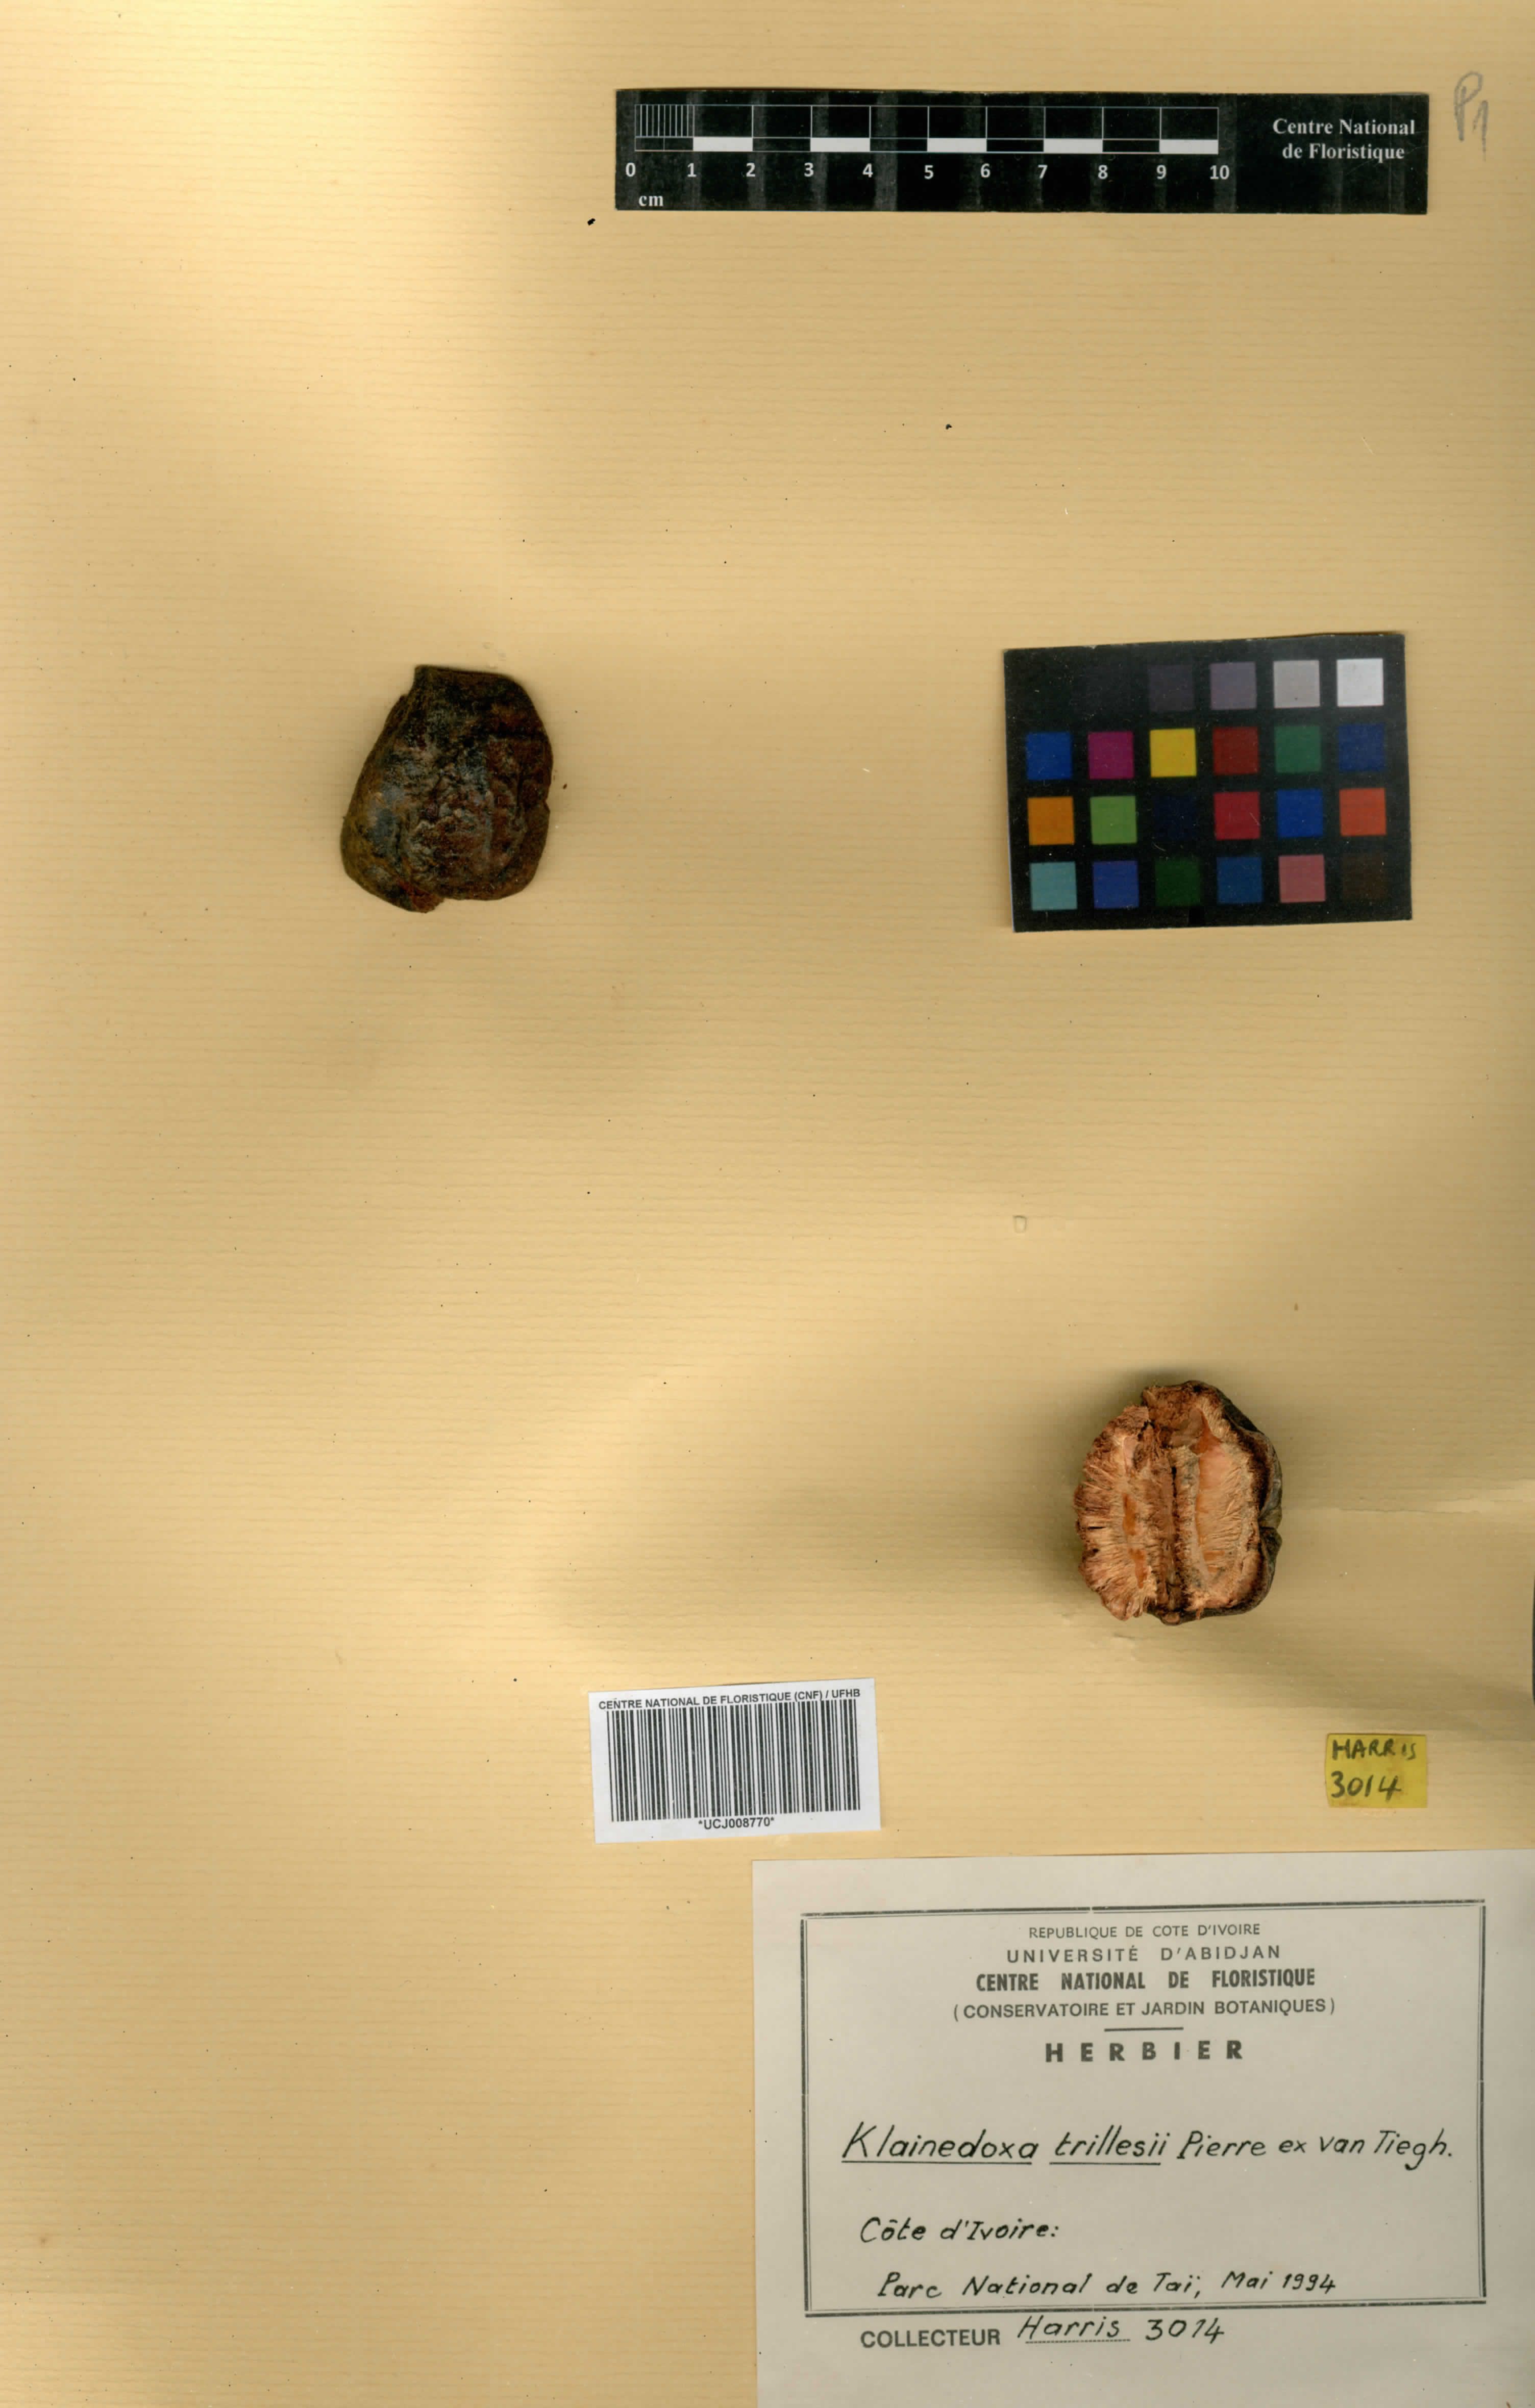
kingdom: Plantae
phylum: Tracheophyta
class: Magnoliopsida
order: Malpighiales
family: Irvingiaceae
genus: Klainedoxa
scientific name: Klainedoxa trillesii
